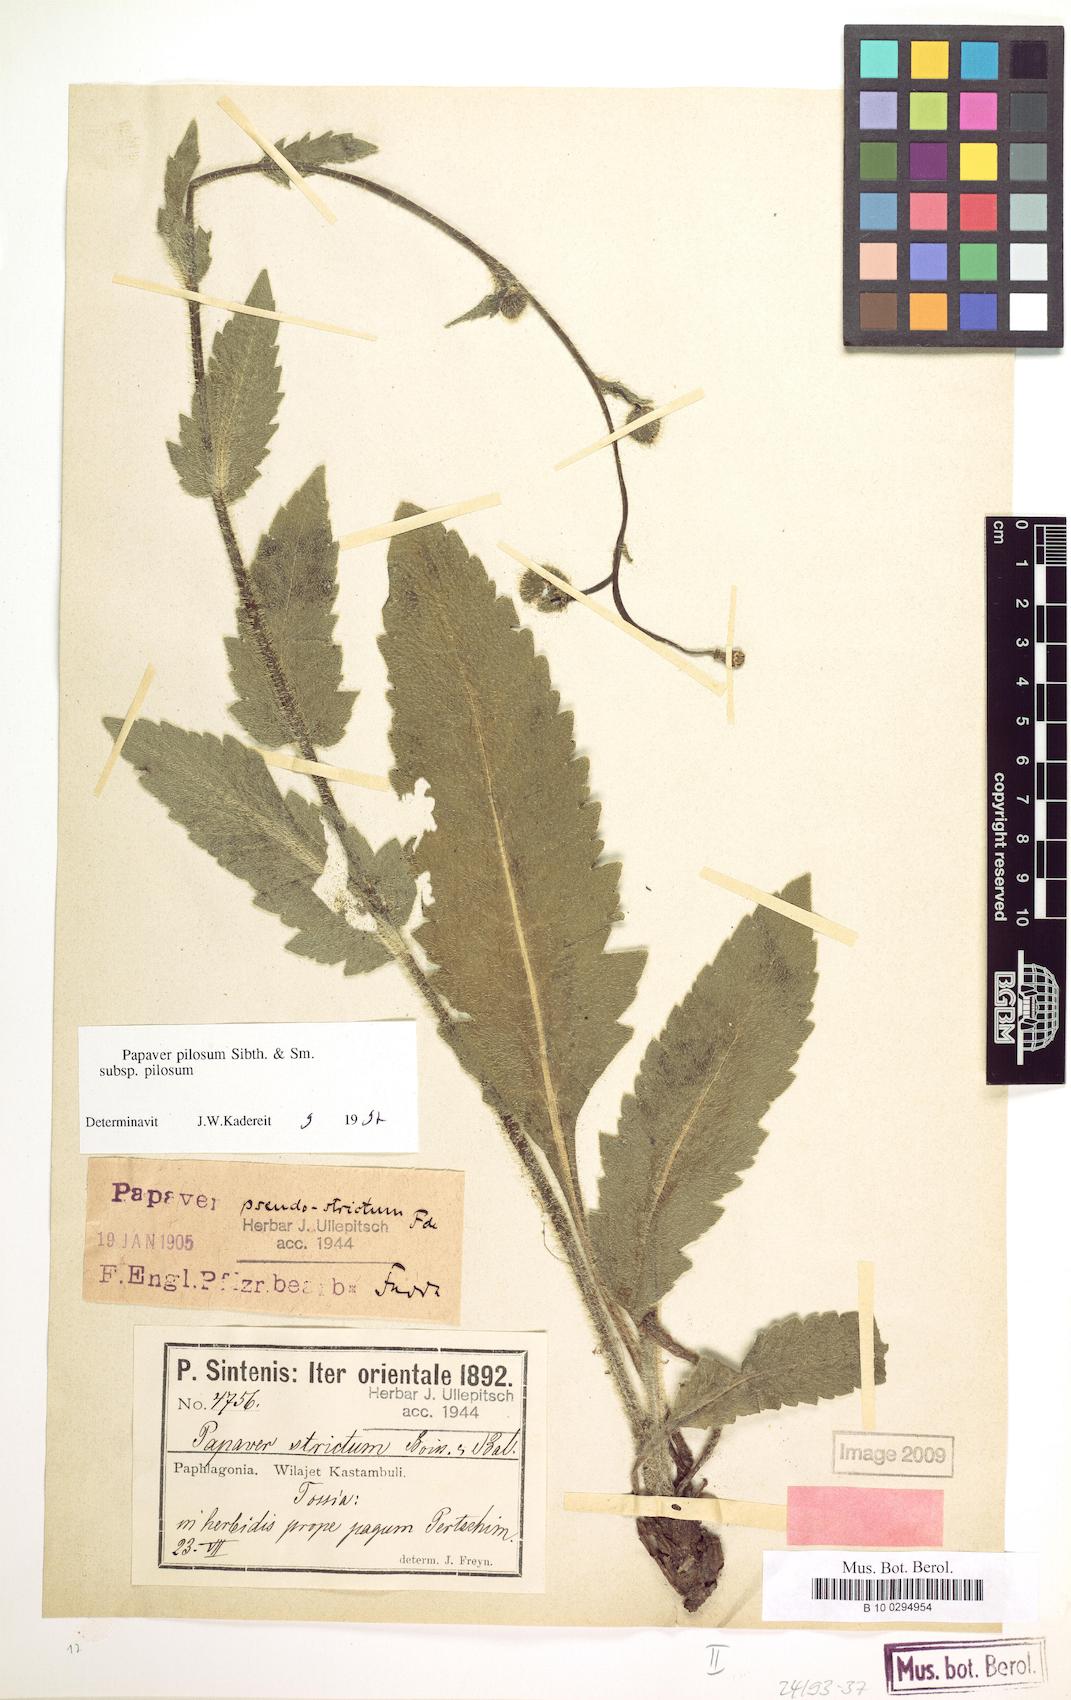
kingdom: Plantae
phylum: Tracheophyta
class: Magnoliopsida
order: Ranunculales
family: Papaveraceae
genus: Papaver
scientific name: Papaver pilosum
